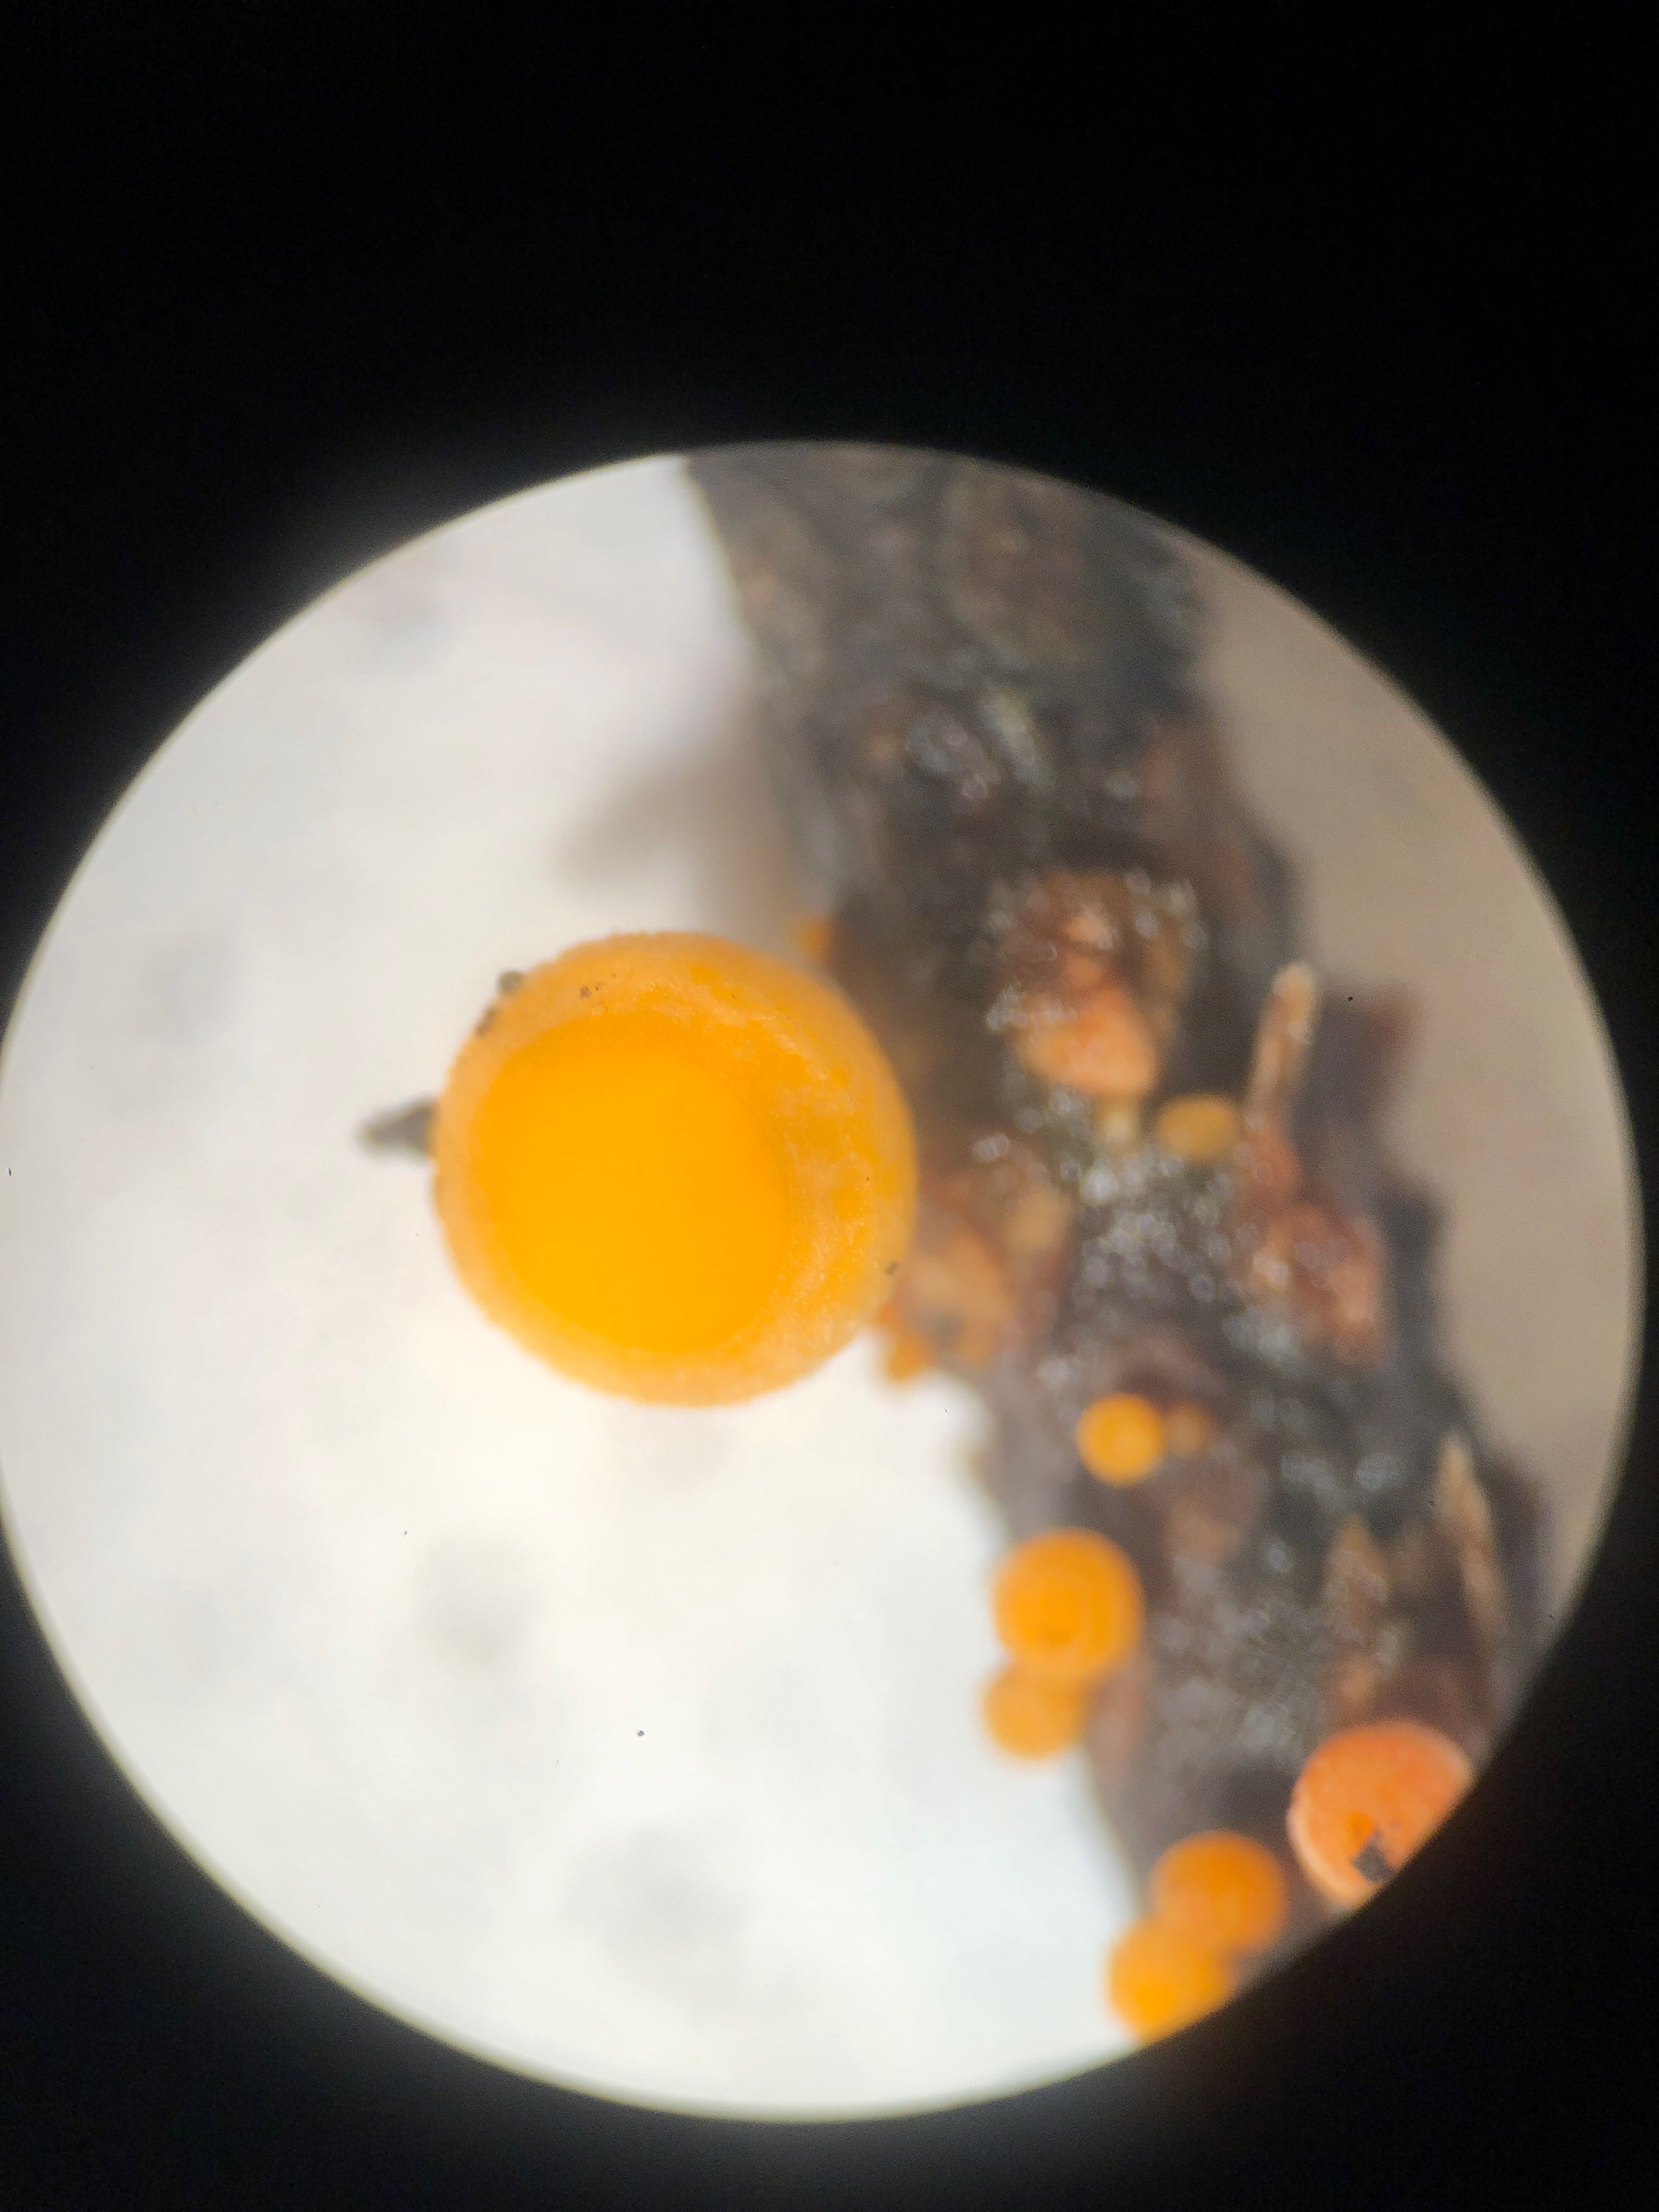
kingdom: Fungi
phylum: Ascomycota
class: Pezizomycetes
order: Pezizales
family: Sarcoscyphaceae
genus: Pithya
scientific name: Pithya vulgaris
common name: stor dukatbæger
